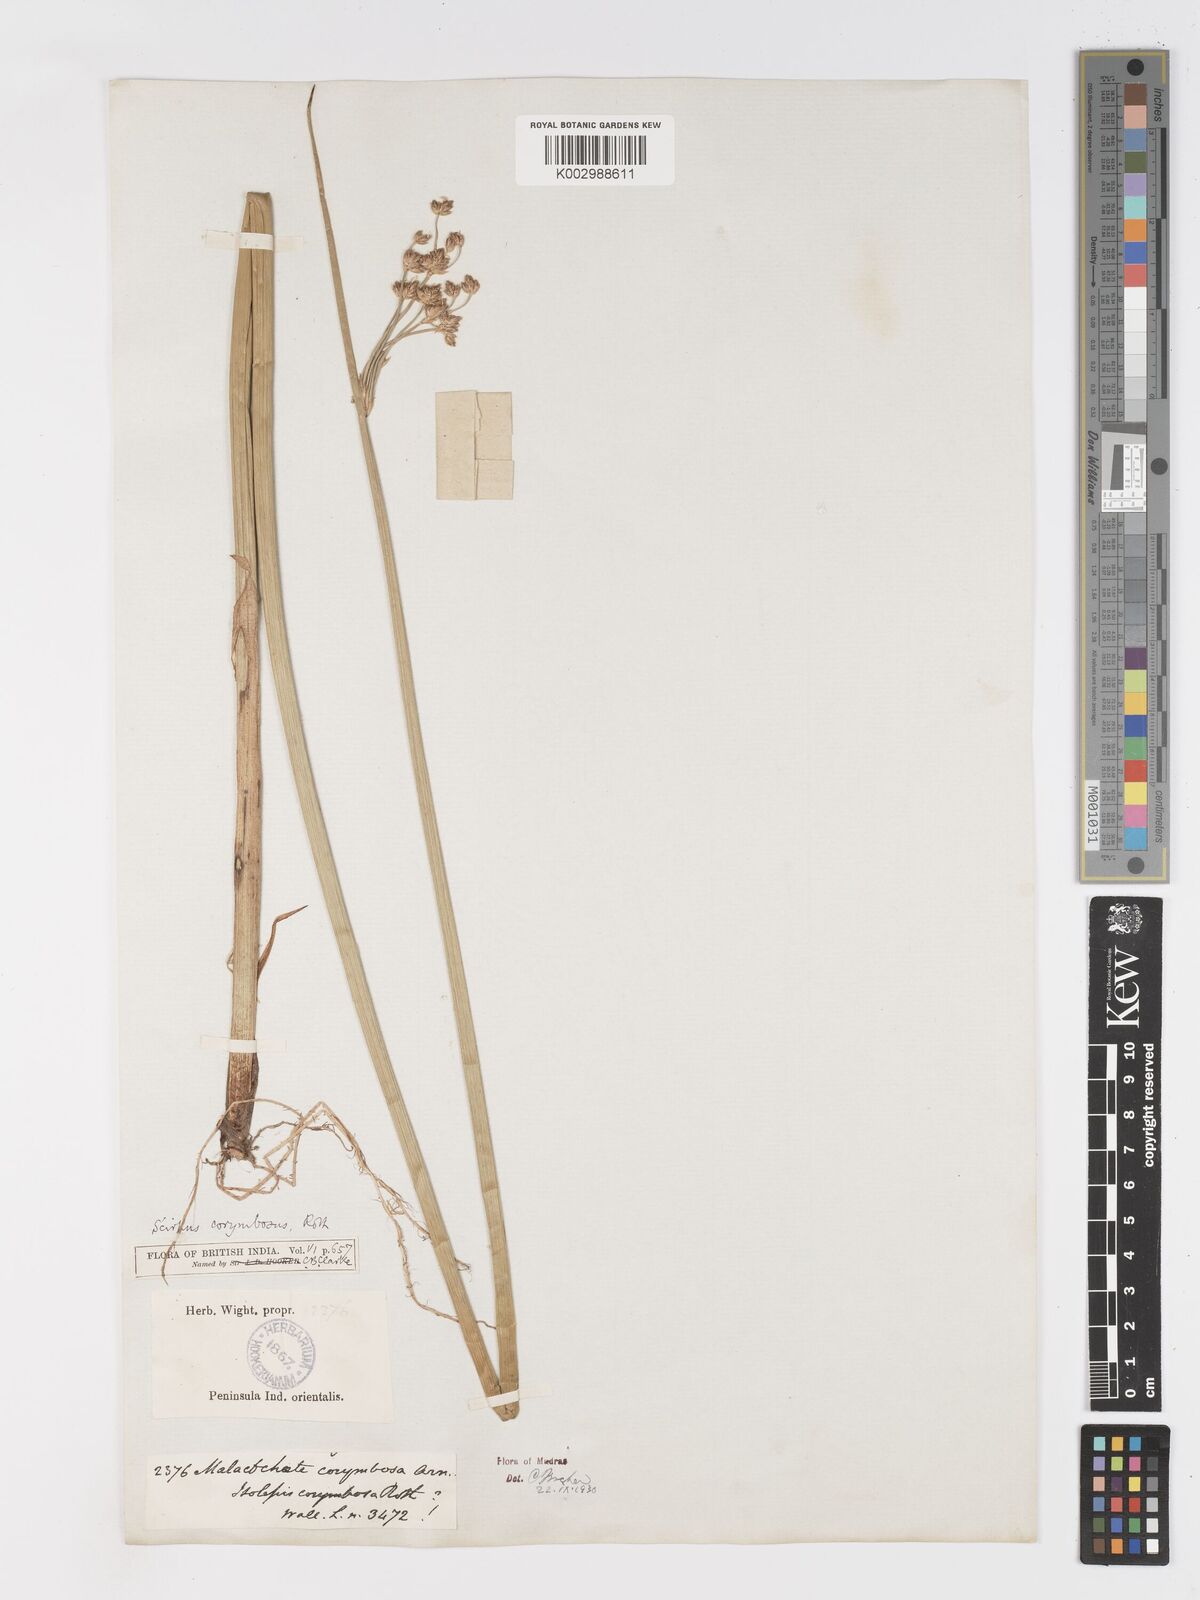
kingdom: Plantae
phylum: Tracheophyta
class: Liliopsida
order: Poales
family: Cyperaceae
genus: Schoenoplectiella
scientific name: Schoenoplectiella corymbosa
